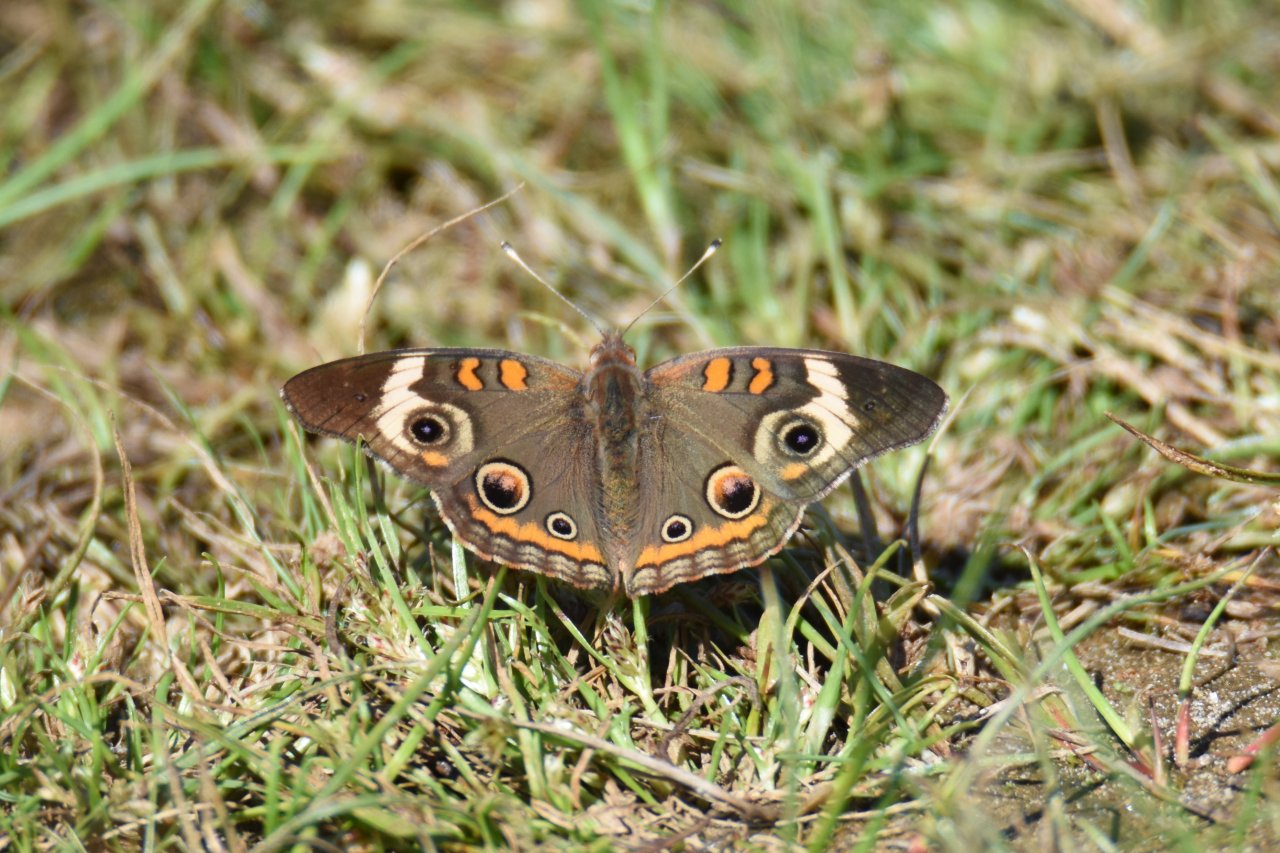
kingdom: Animalia
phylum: Arthropoda
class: Insecta
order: Lepidoptera
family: Nymphalidae
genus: Junonia
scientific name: Junonia coenia
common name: Common Buckeye
